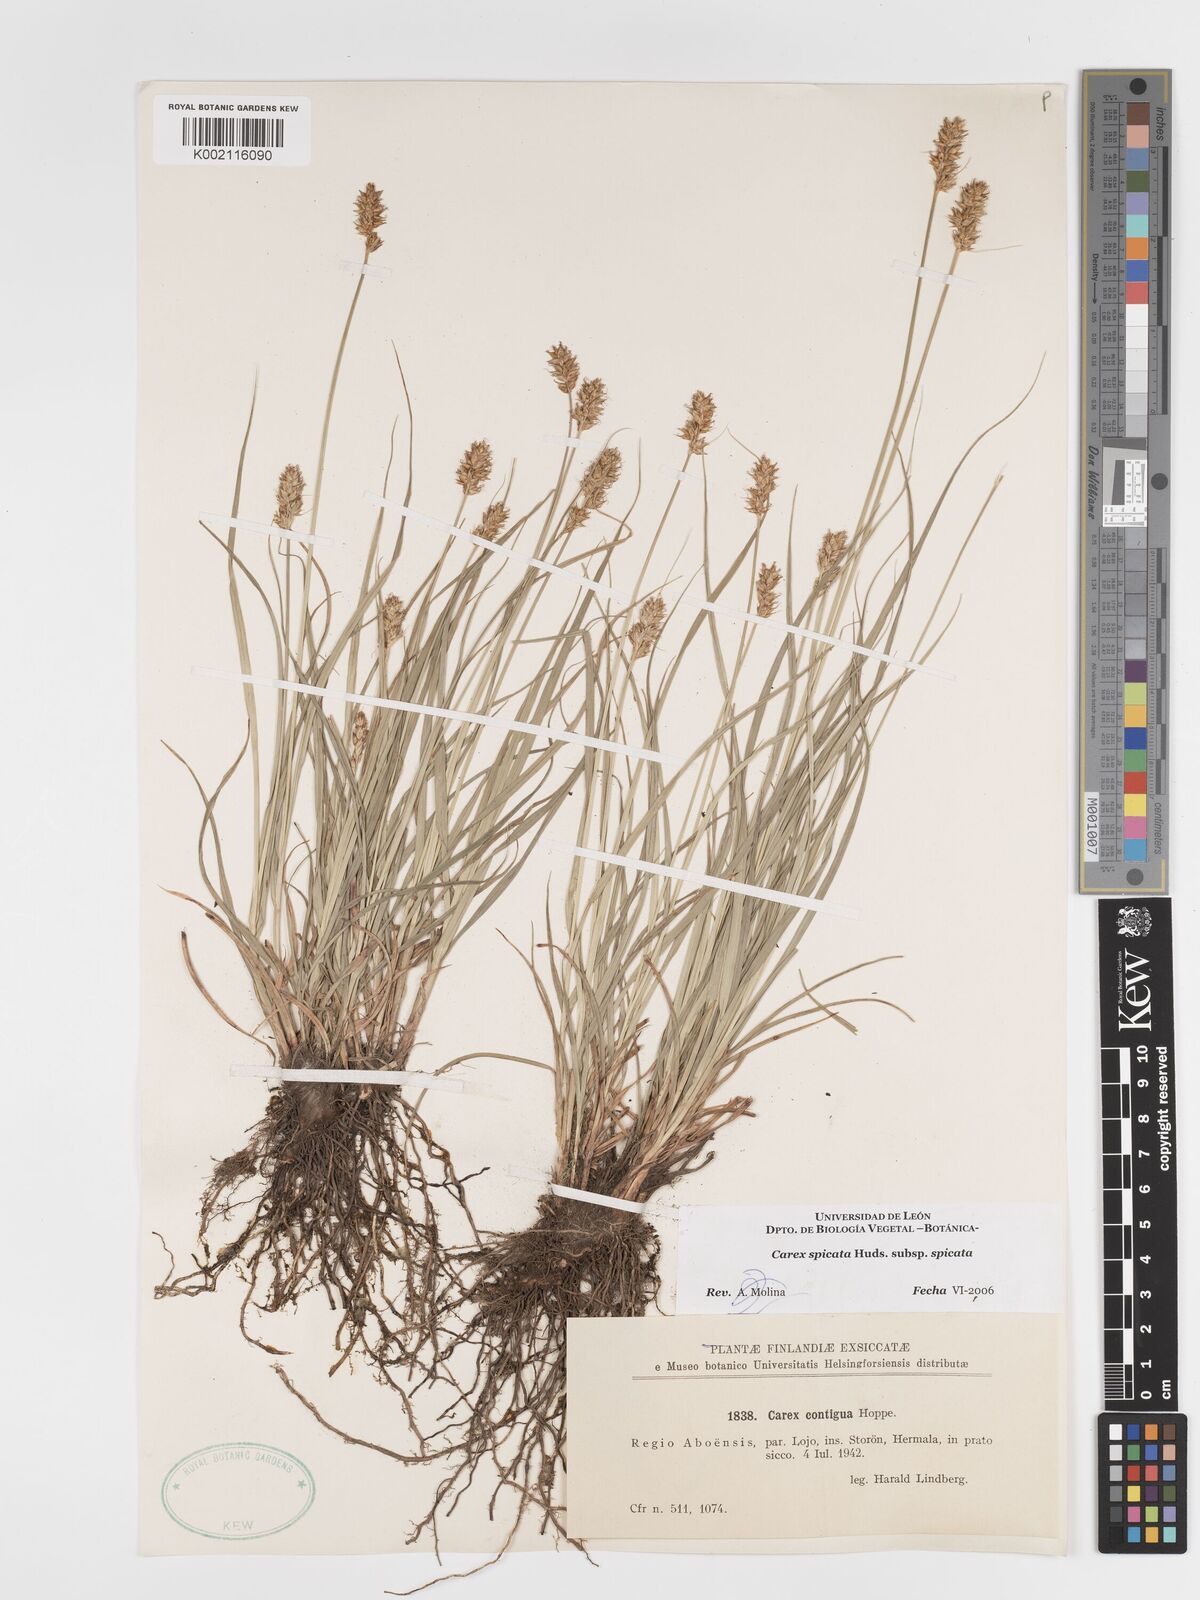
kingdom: Plantae
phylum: Tracheophyta
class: Liliopsida
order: Poales
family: Cyperaceae
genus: Carex
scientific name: Carex spicata
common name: Spiked sedge
